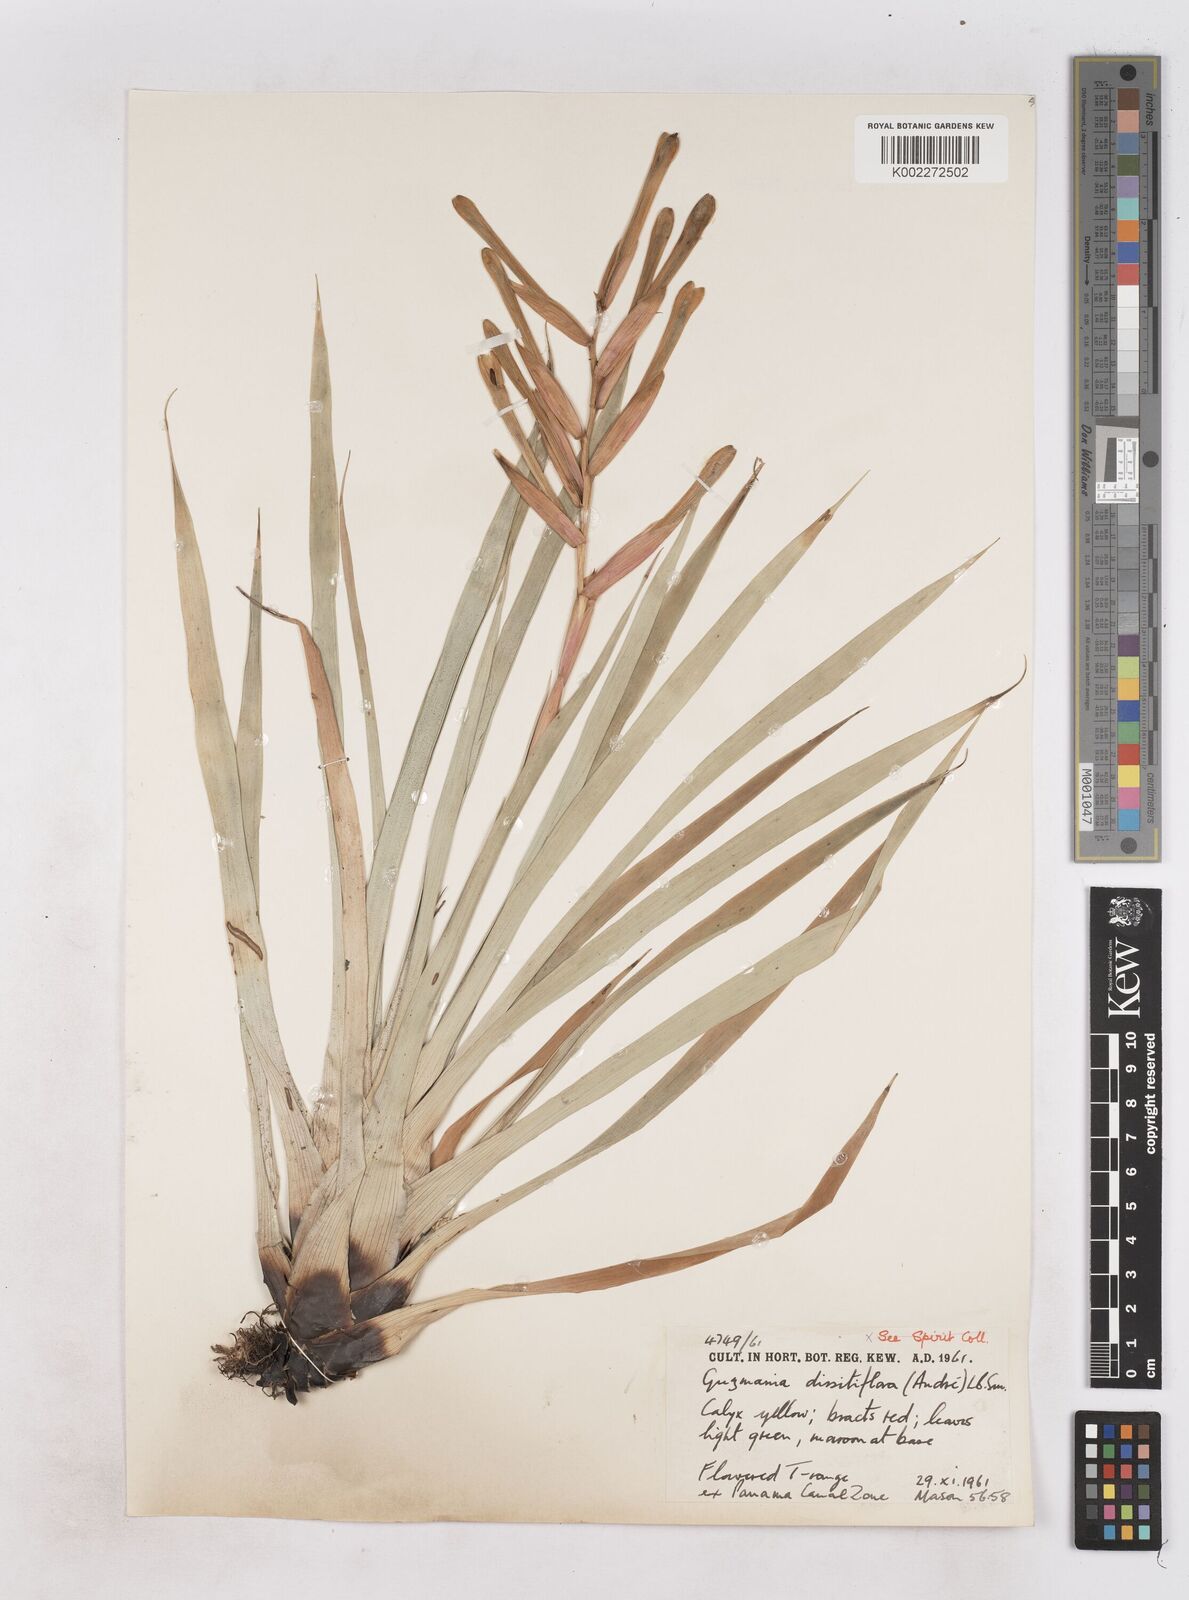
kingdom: Plantae
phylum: Tracheophyta
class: Liliopsida
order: Poales
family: Bromeliaceae
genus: Guzmania
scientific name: Guzmania dissitiflora
